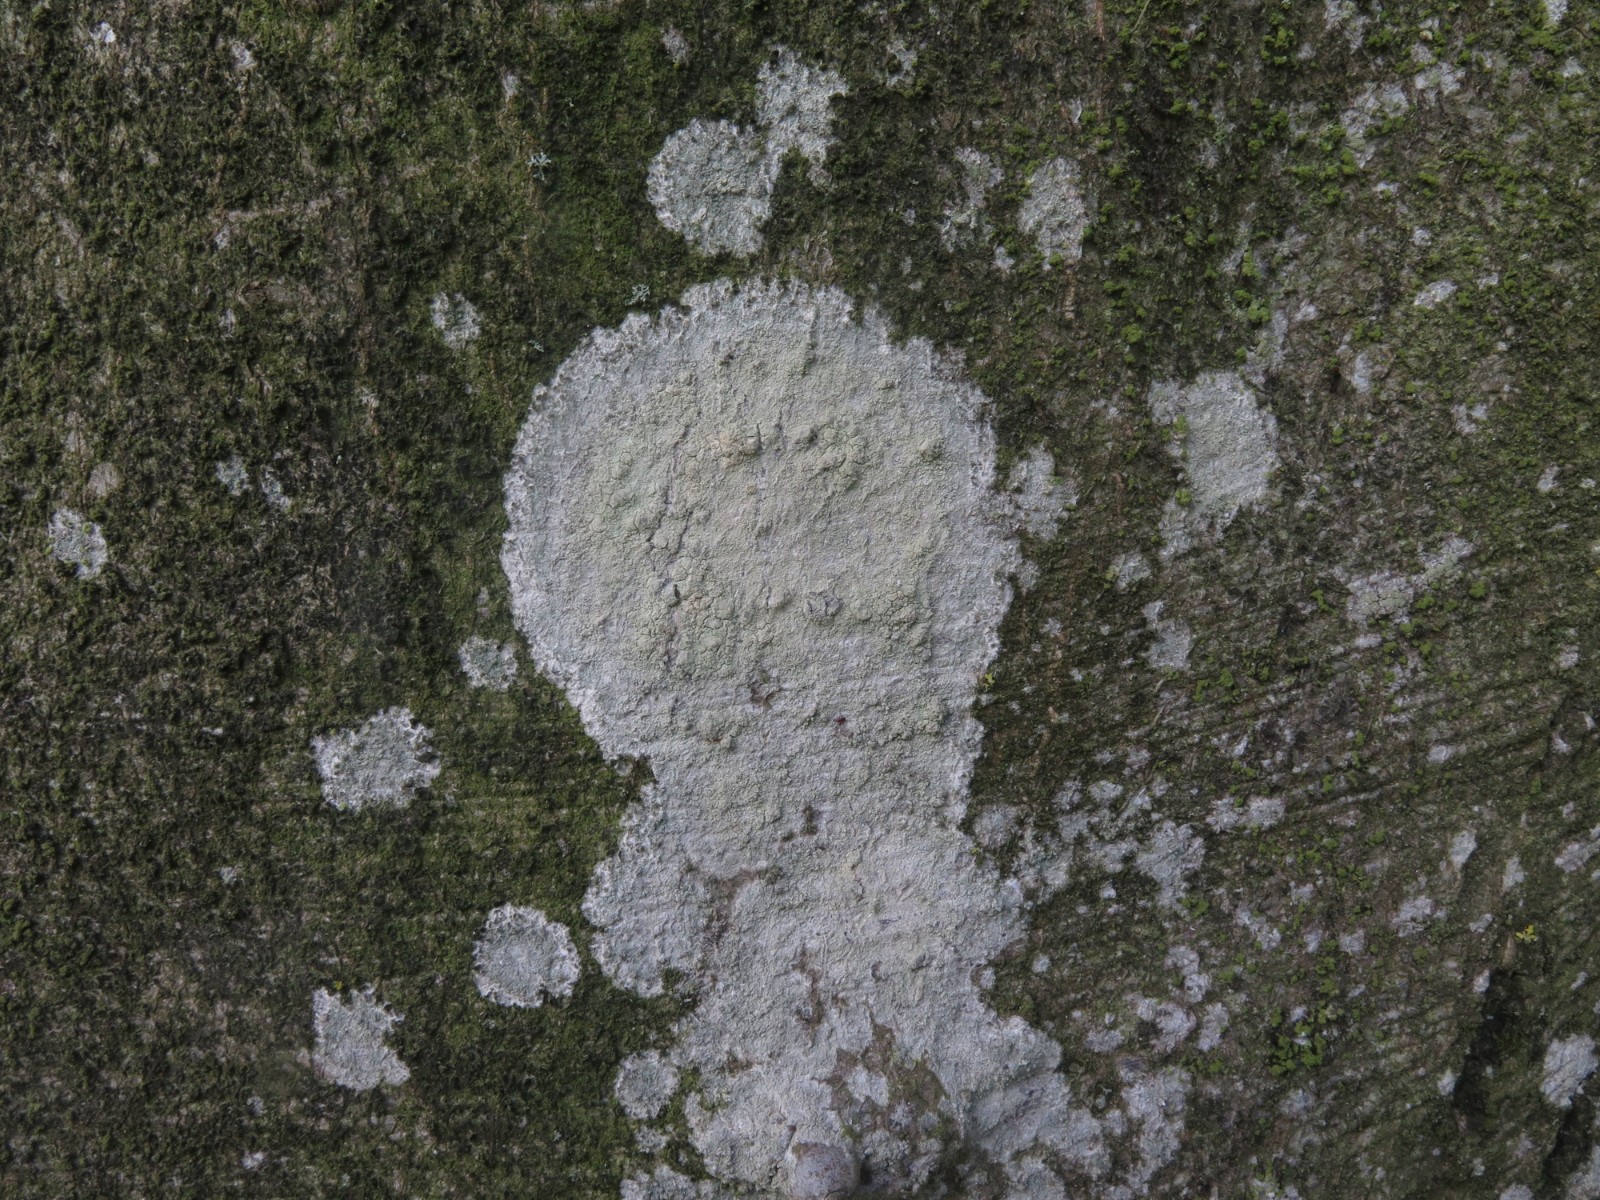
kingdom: Fungi
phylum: Ascomycota
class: Lecanoromycetes
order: Ostropales
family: Phlyctidaceae
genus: Phlyctis
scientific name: Phlyctis argena
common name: almindelig sølvlav
